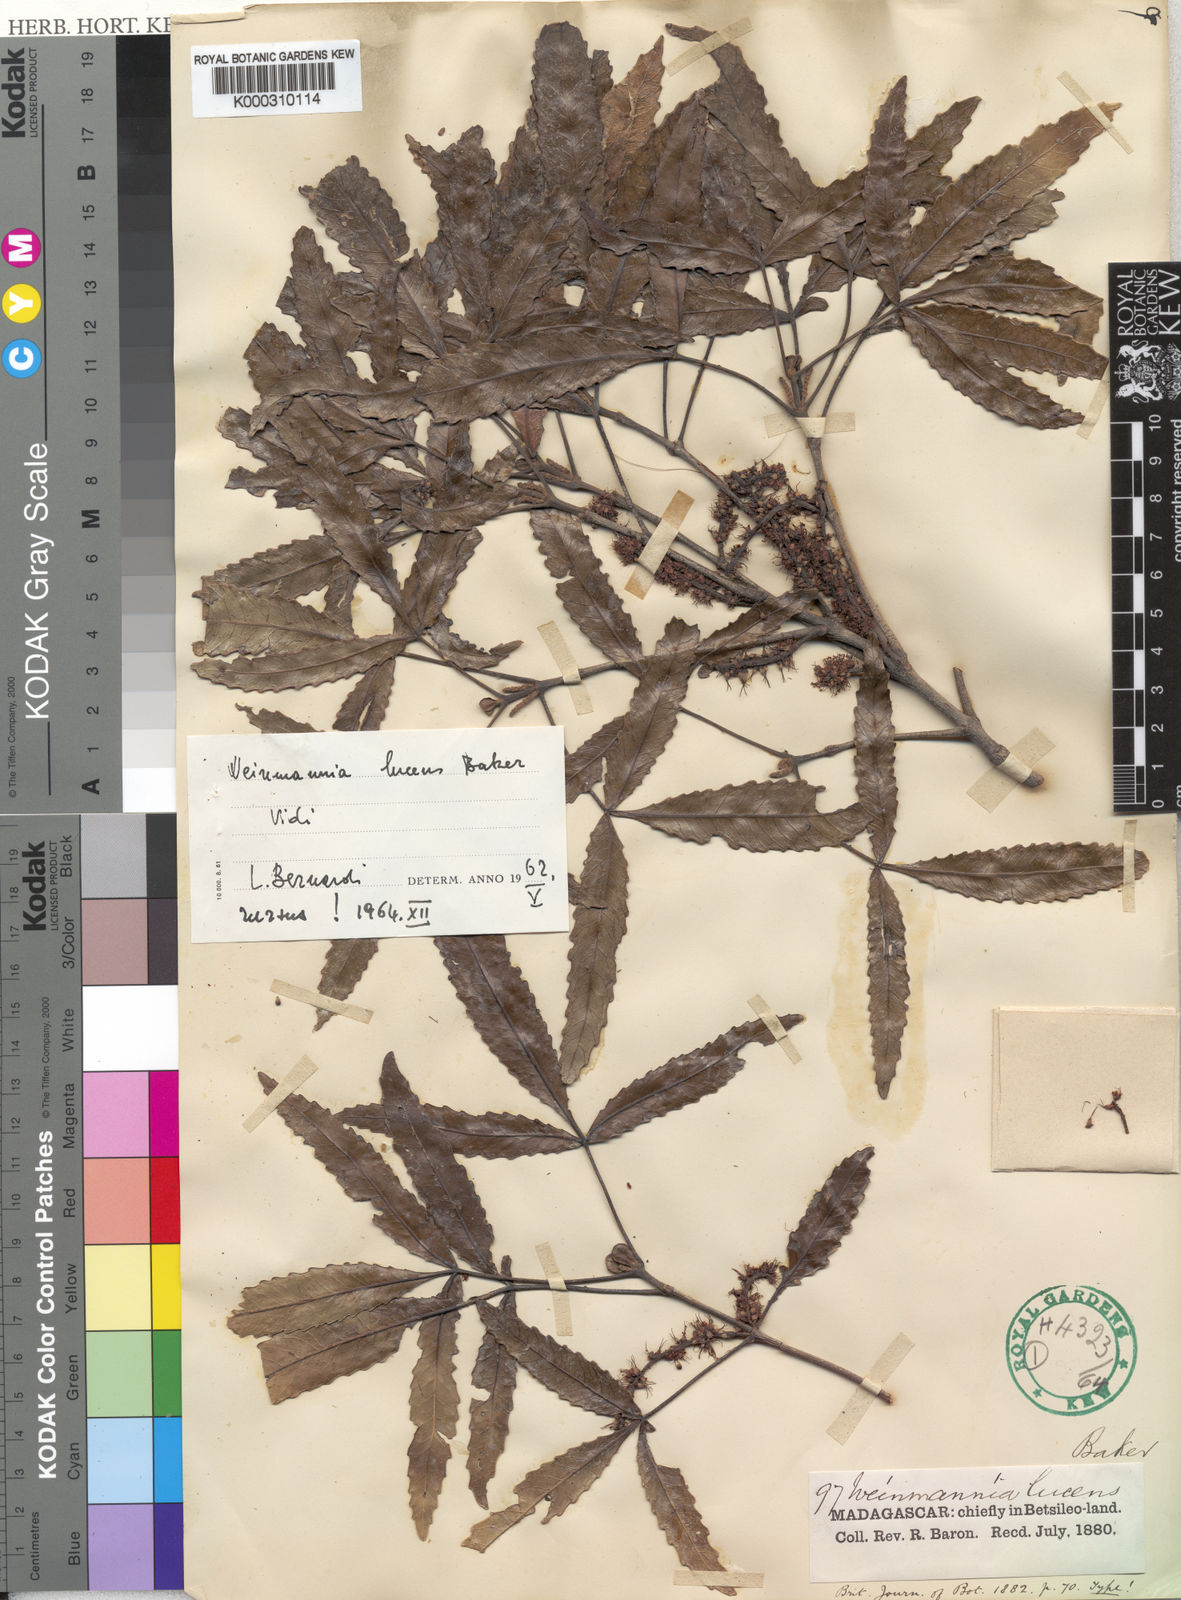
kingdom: Plantae
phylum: Tracheophyta
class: Magnoliopsida
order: Oxalidales
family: Cunoniaceae
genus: Pterophylla
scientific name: Pterophylla lucens
